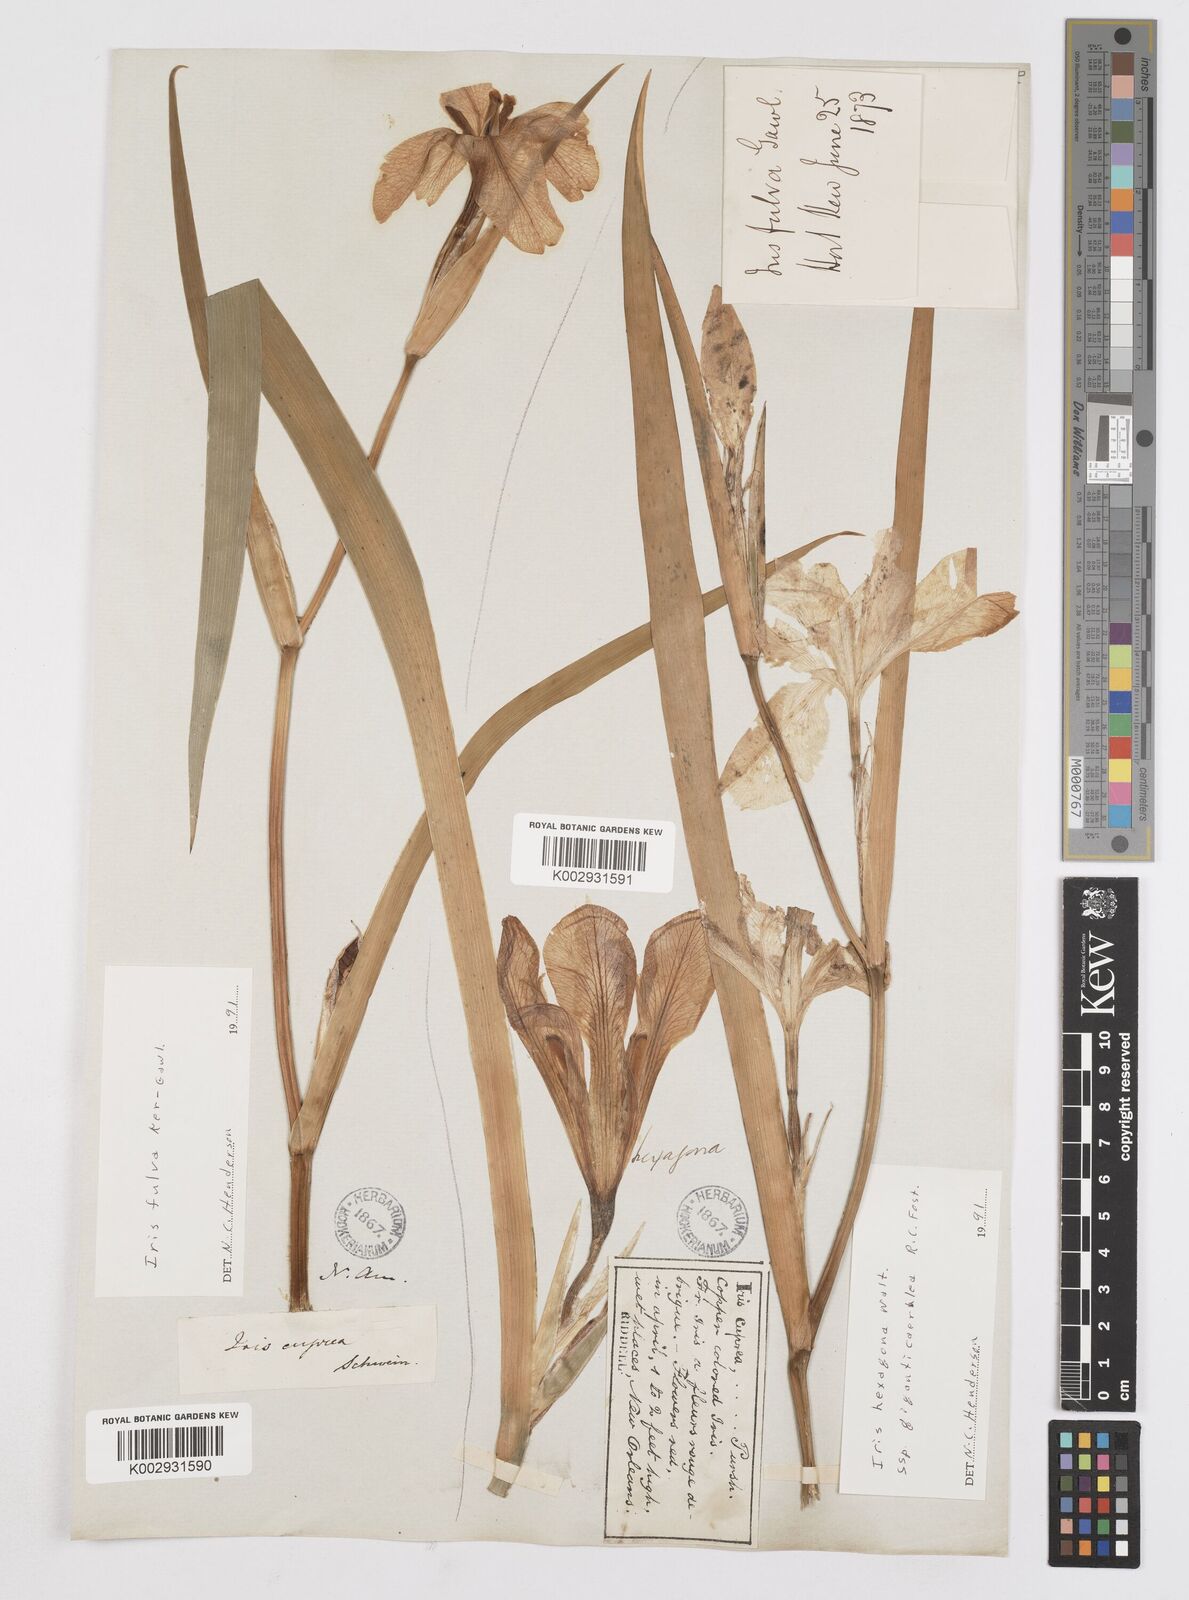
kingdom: Plantae
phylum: Tracheophyta
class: Liliopsida
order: Asparagales
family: Iridaceae
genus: Iris
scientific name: Iris fulva
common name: Copper iris
